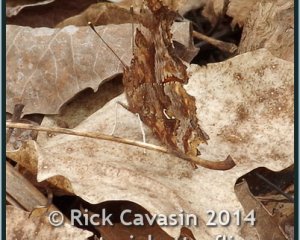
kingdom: Animalia
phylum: Arthropoda
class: Insecta
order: Lepidoptera
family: Nymphalidae
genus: Polygonia
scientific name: Polygonia comma
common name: Eastern Comma
